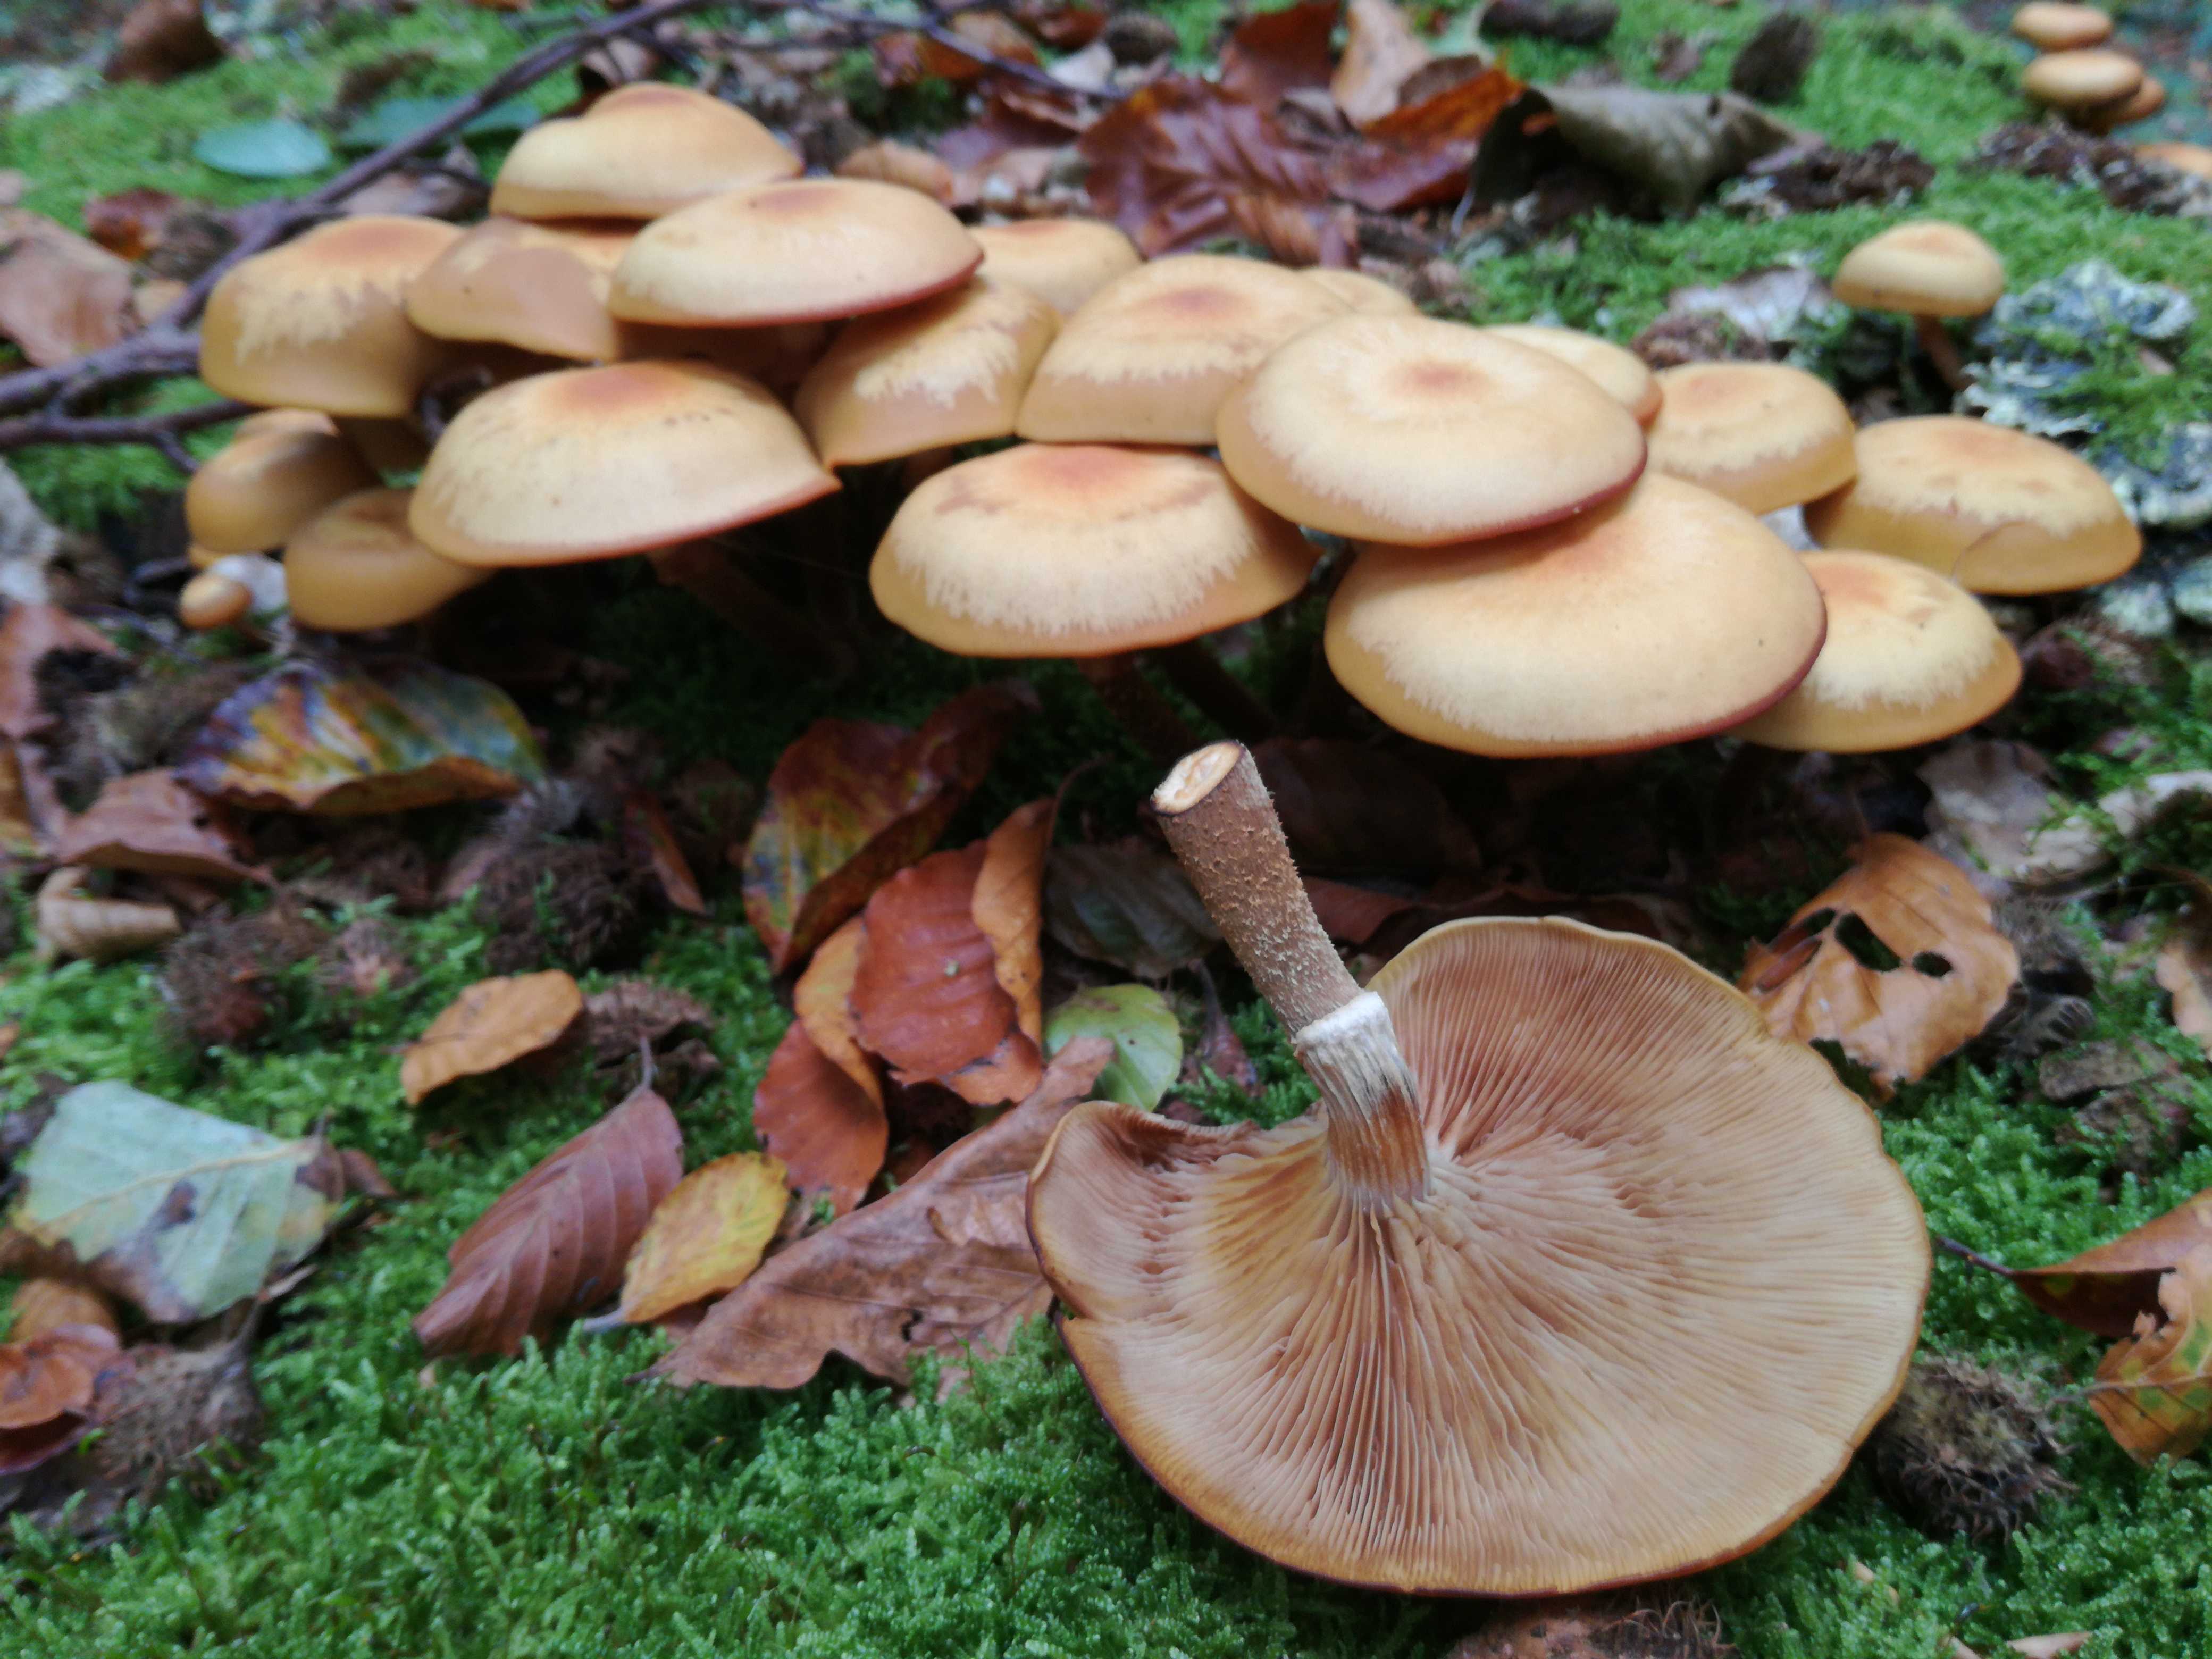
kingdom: Fungi
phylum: Basidiomycota
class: Agaricomycetes
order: Agaricales
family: Strophariaceae
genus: Kuehneromyces
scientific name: Kuehneromyces mutabilis
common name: foranderlig skælhat
